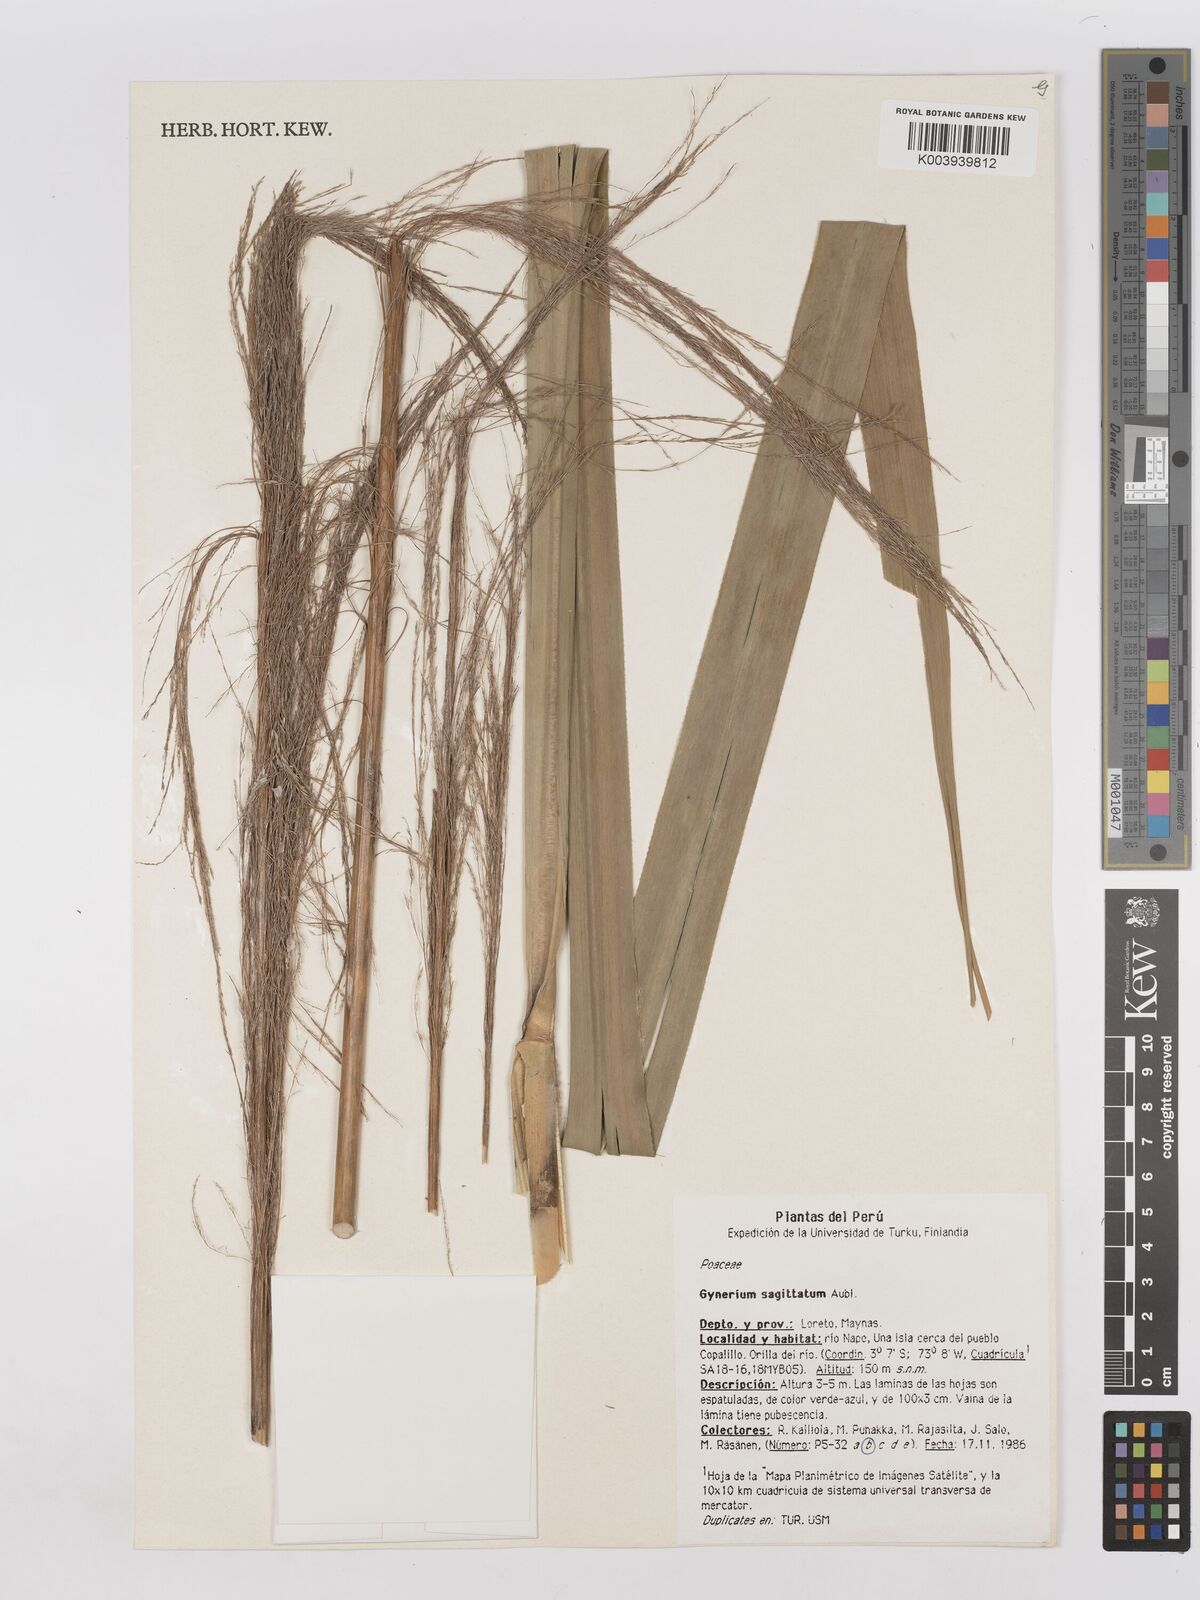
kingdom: Plantae
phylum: Tracheophyta
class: Liliopsida
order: Poales
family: Poaceae
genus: Gynerium
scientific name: Gynerium sagittatum
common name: Wild cane
